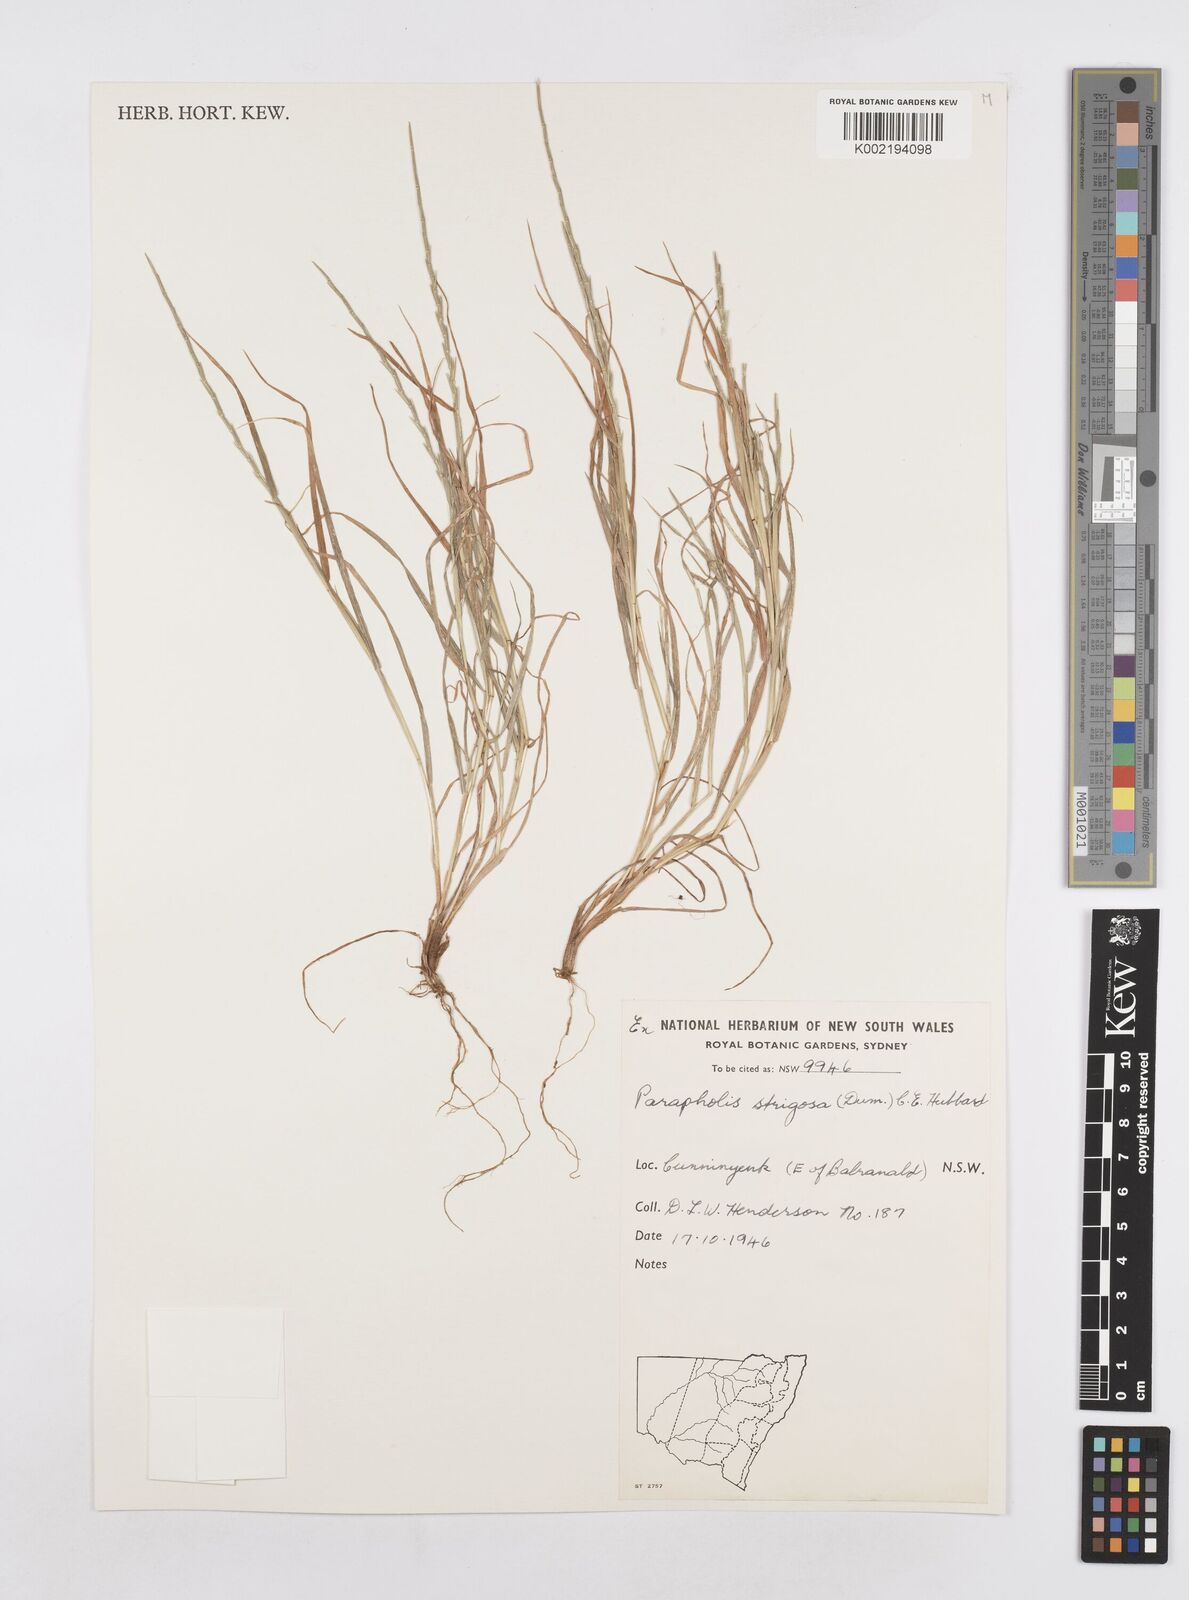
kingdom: Plantae
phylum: Tracheophyta
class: Liliopsida
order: Poales
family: Poaceae
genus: Parapholis
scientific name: Parapholis strigosa
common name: Hard-grass
